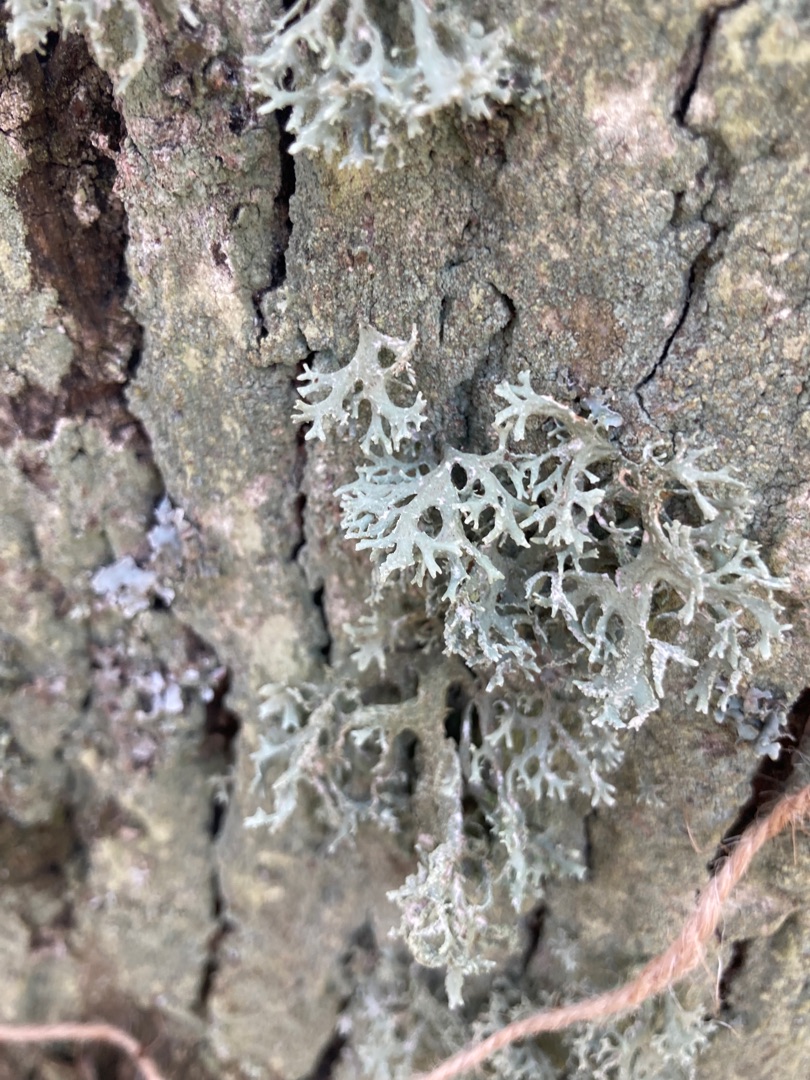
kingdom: Fungi
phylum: Ascomycota
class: Lecanoromycetes
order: Lecanorales
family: Parmeliaceae
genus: Evernia
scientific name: Evernia prunastri
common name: Almindelig slåenlav
